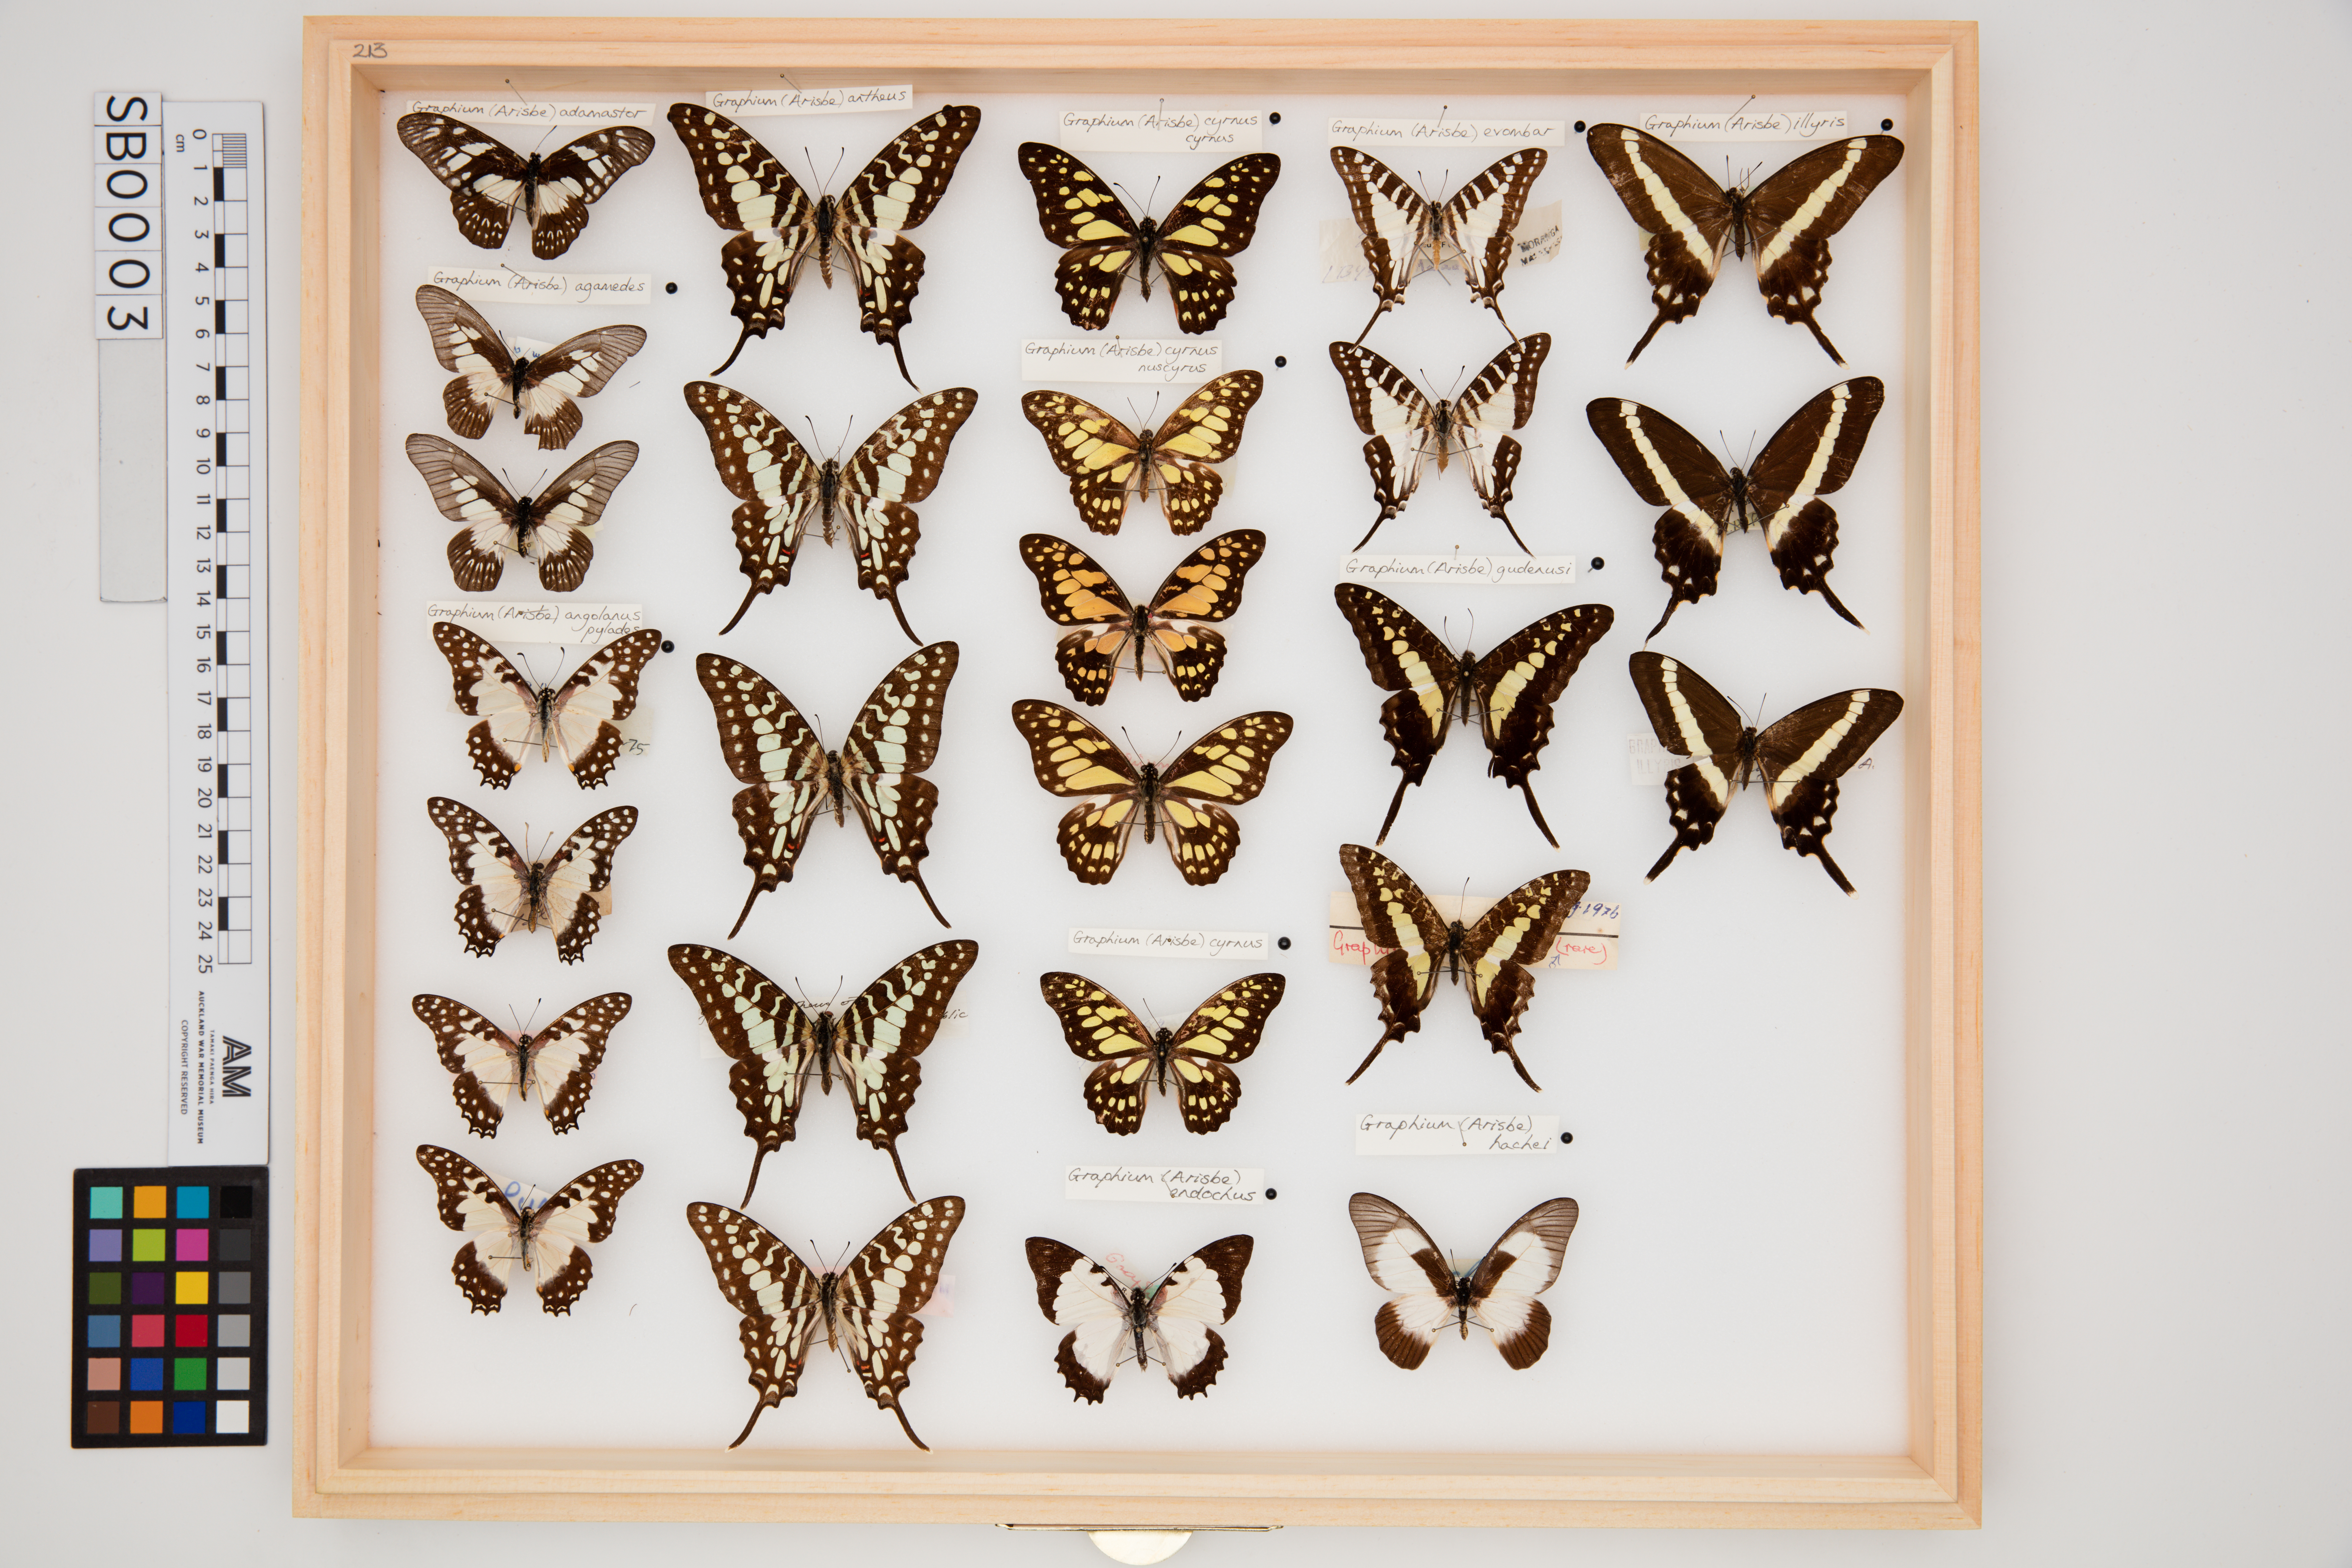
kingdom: Animalia
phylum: Arthropoda
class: Insecta
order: Lepidoptera
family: Papilionidae
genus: Graphium
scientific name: Graphium hachei
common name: Milky graphium
